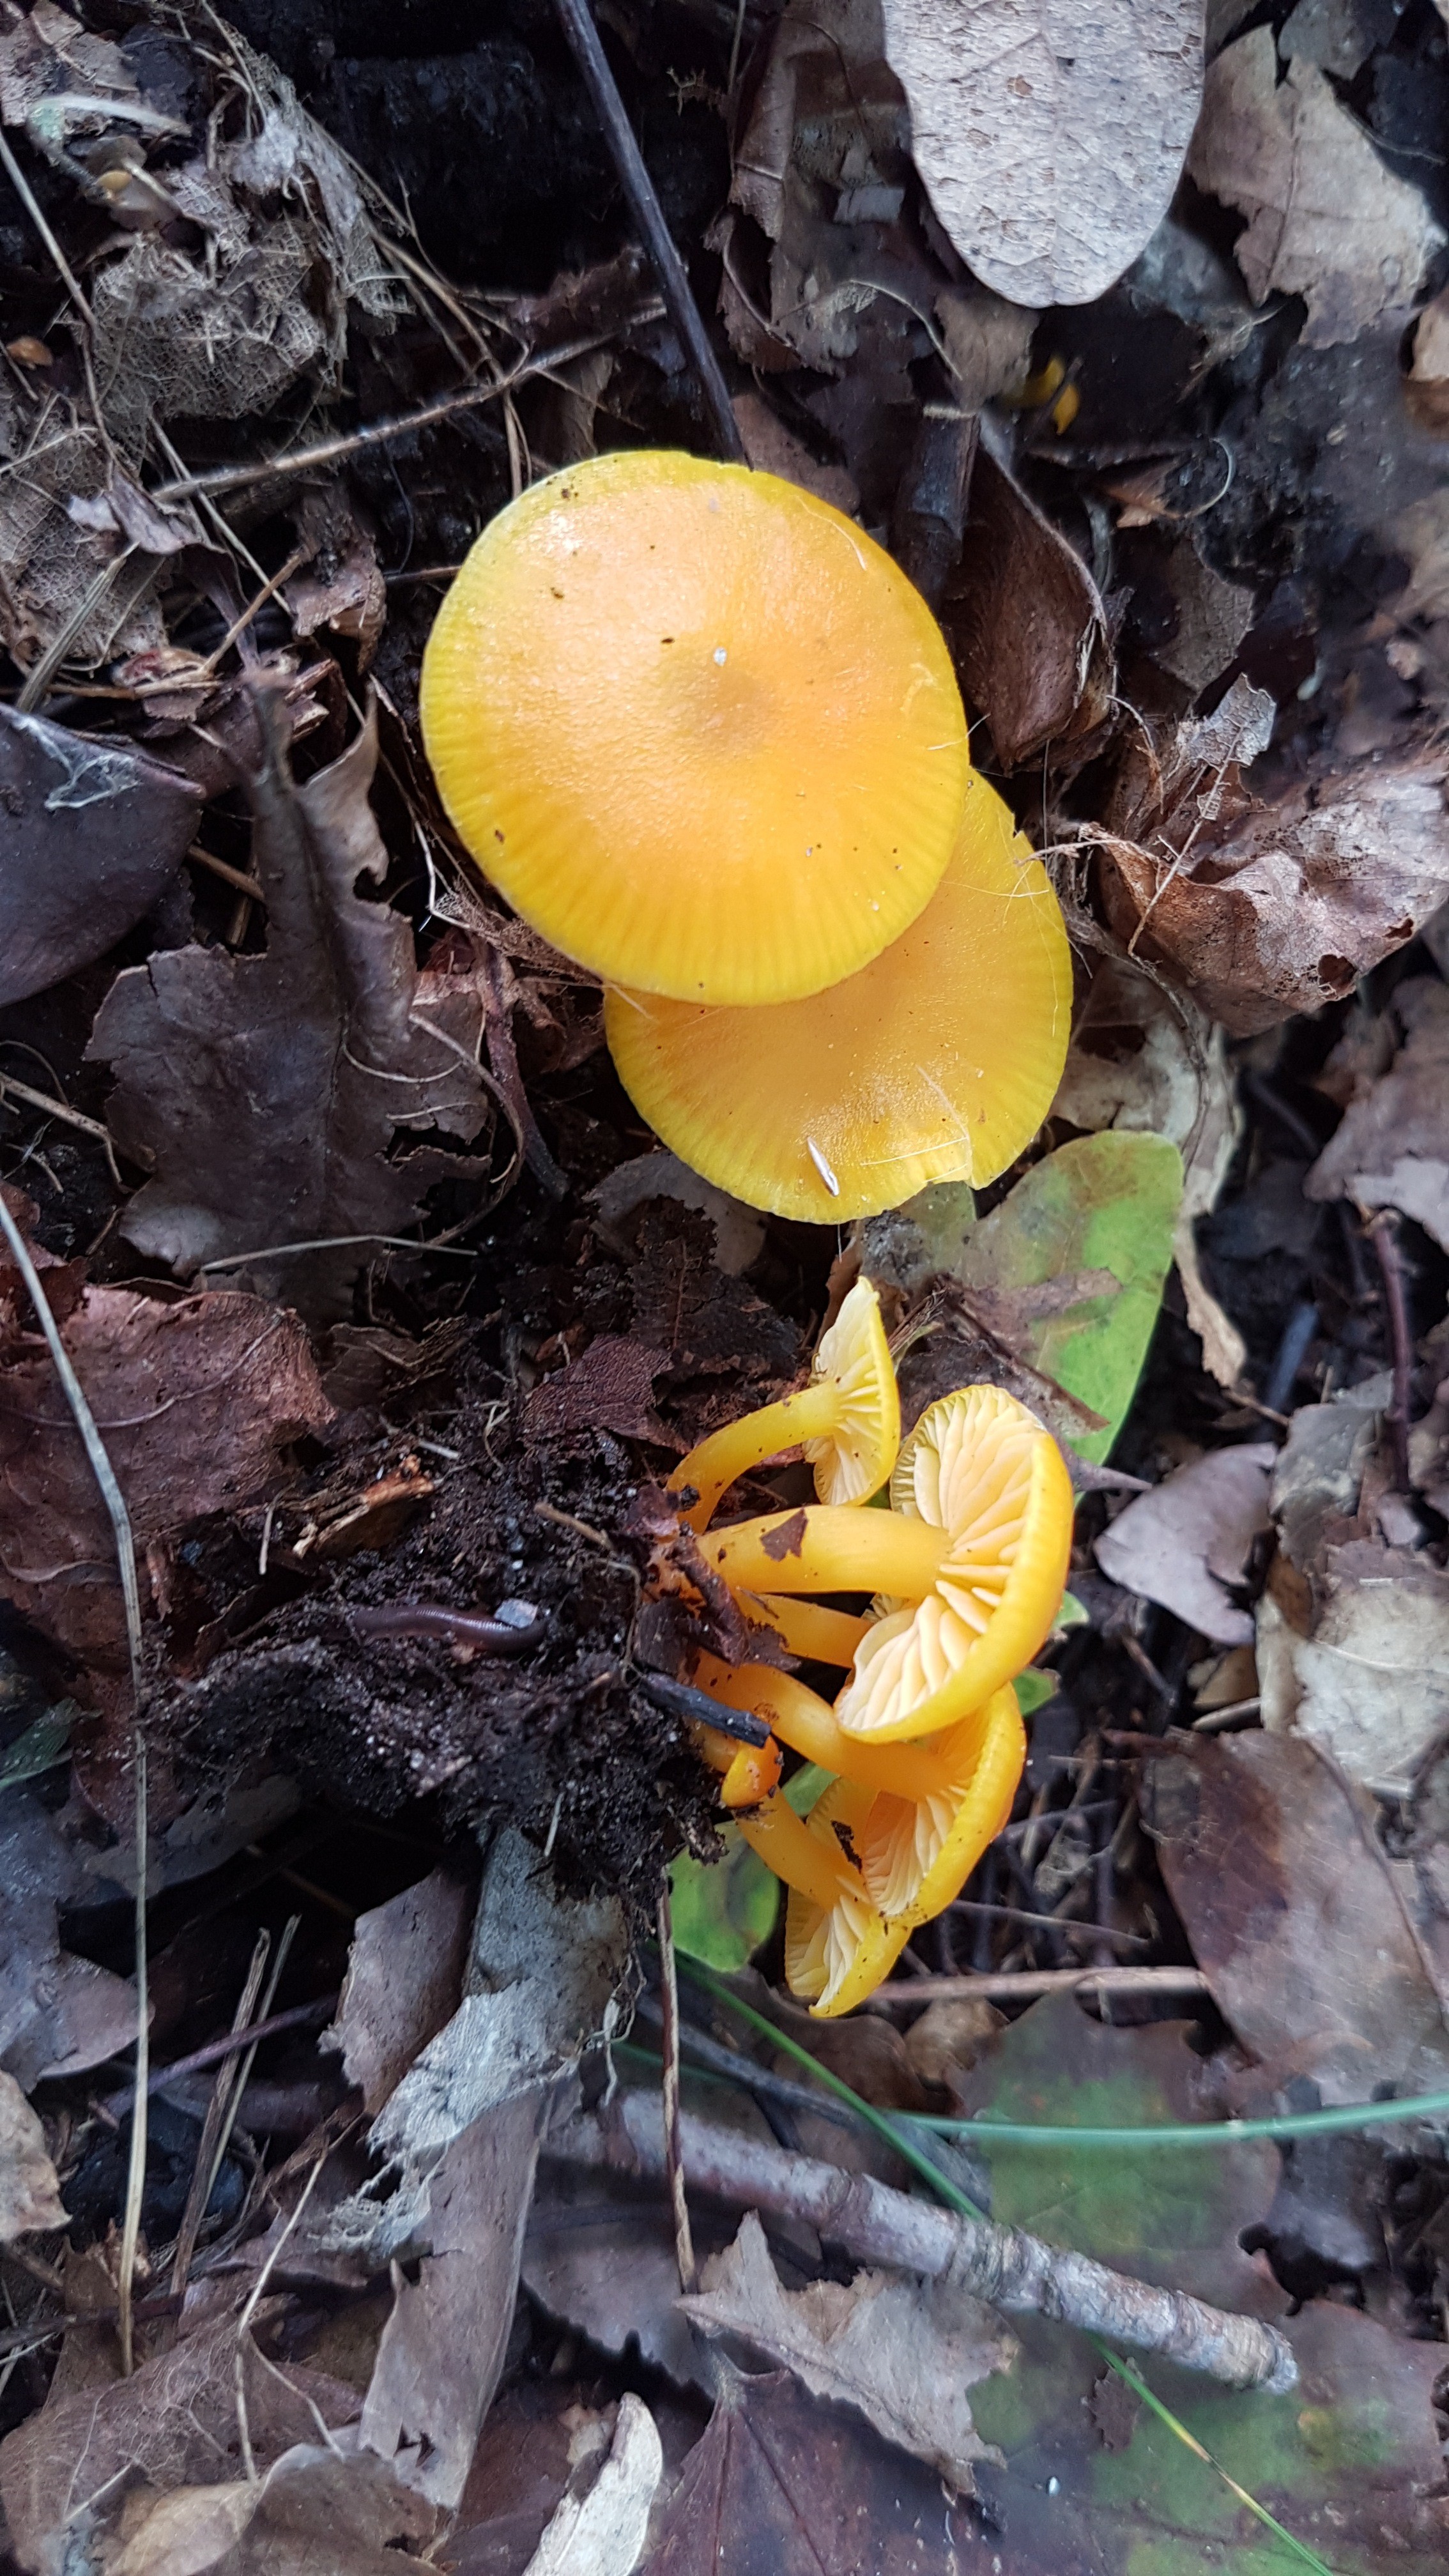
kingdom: Fungi
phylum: Basidiomycota
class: Agaricomycetes
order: Agaricales
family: Hygrophoraceae
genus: Hygrocybe
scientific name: Hygrocybe ceracea
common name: voksgul vokshat
